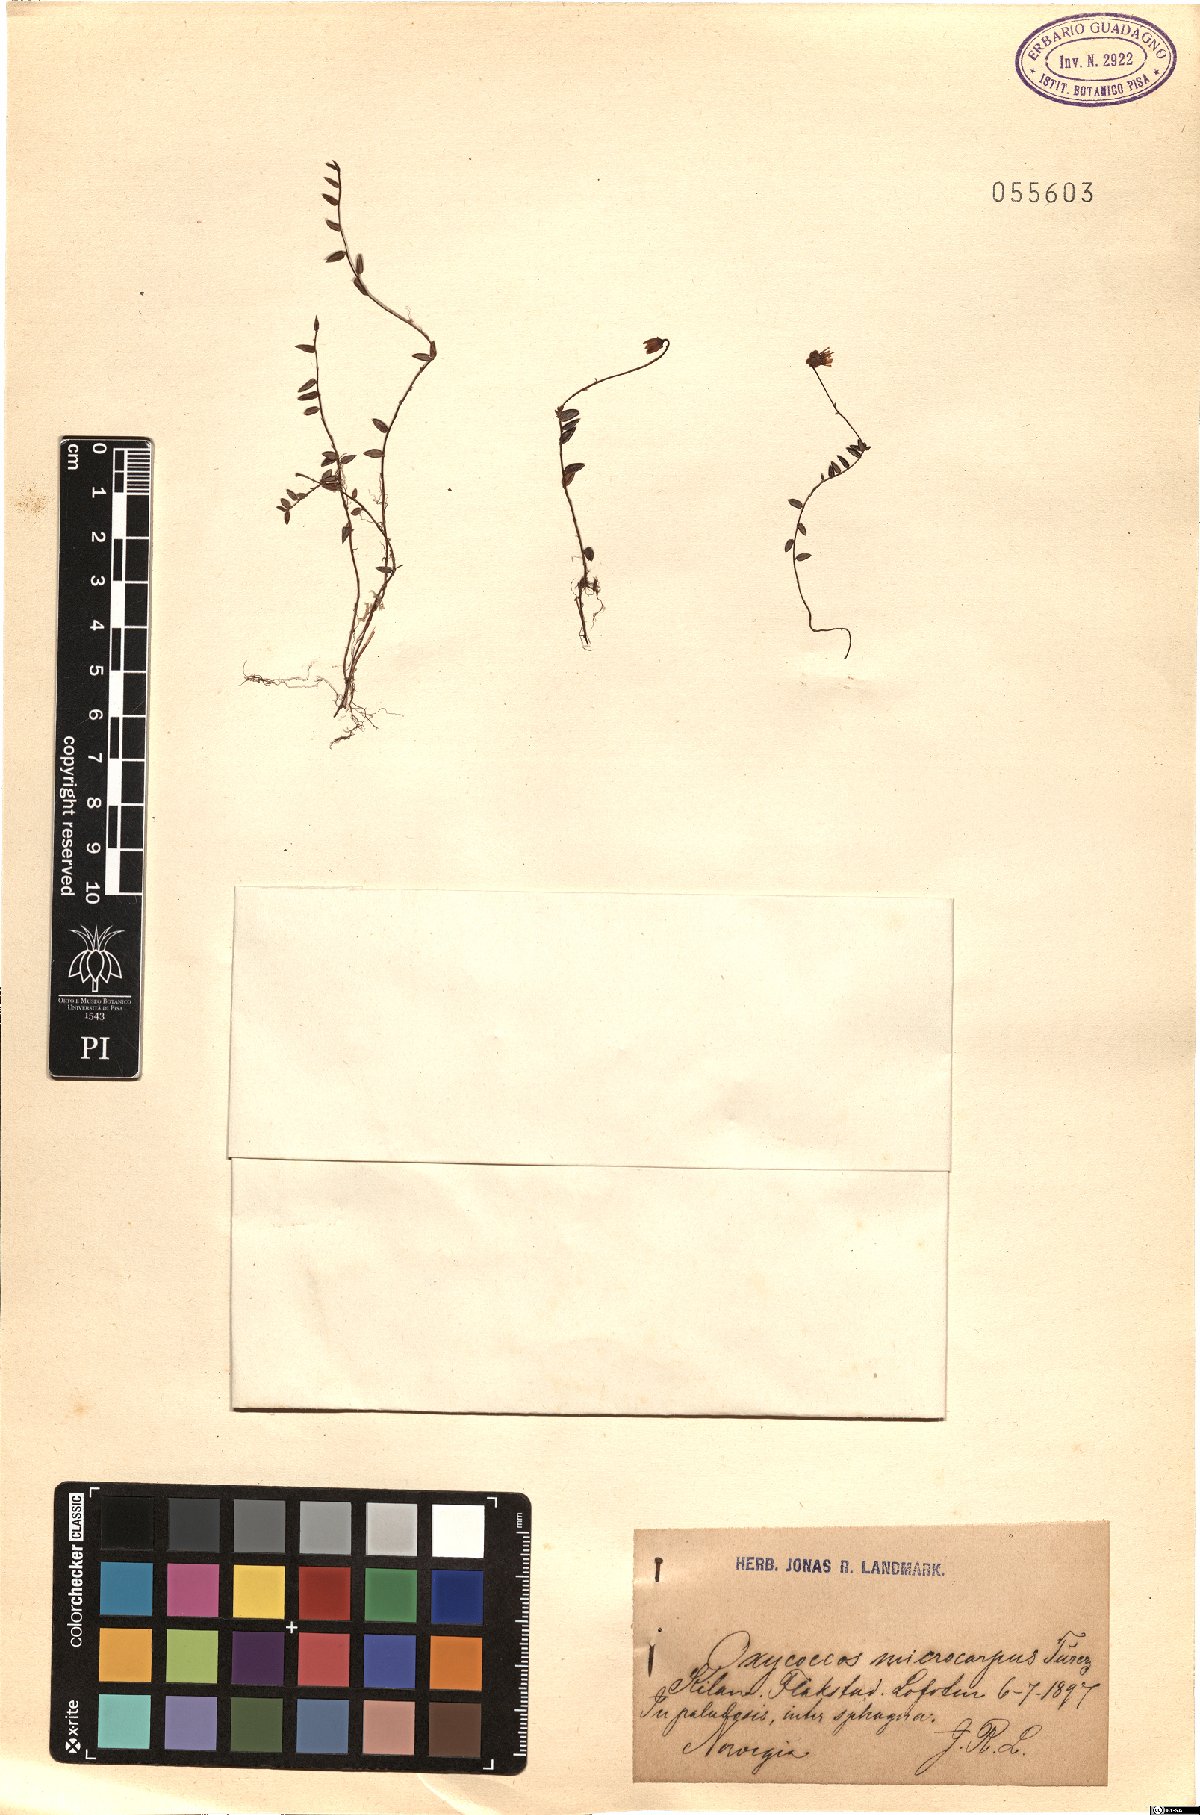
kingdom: Plantae
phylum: Tracheophyta
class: Magnoliopsida
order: Ericales
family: Ericaceae
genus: Vaccinium
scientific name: Vaccinium microcarpum
